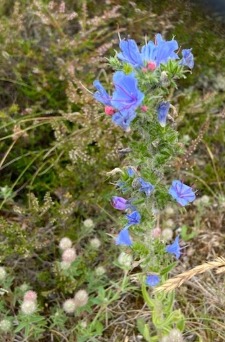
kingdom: Plantae
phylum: Tracheophyta
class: Magnoliopsida
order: Boraginales
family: Boraginaceae
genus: Echium
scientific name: Echium vulgare
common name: Slangehoved
